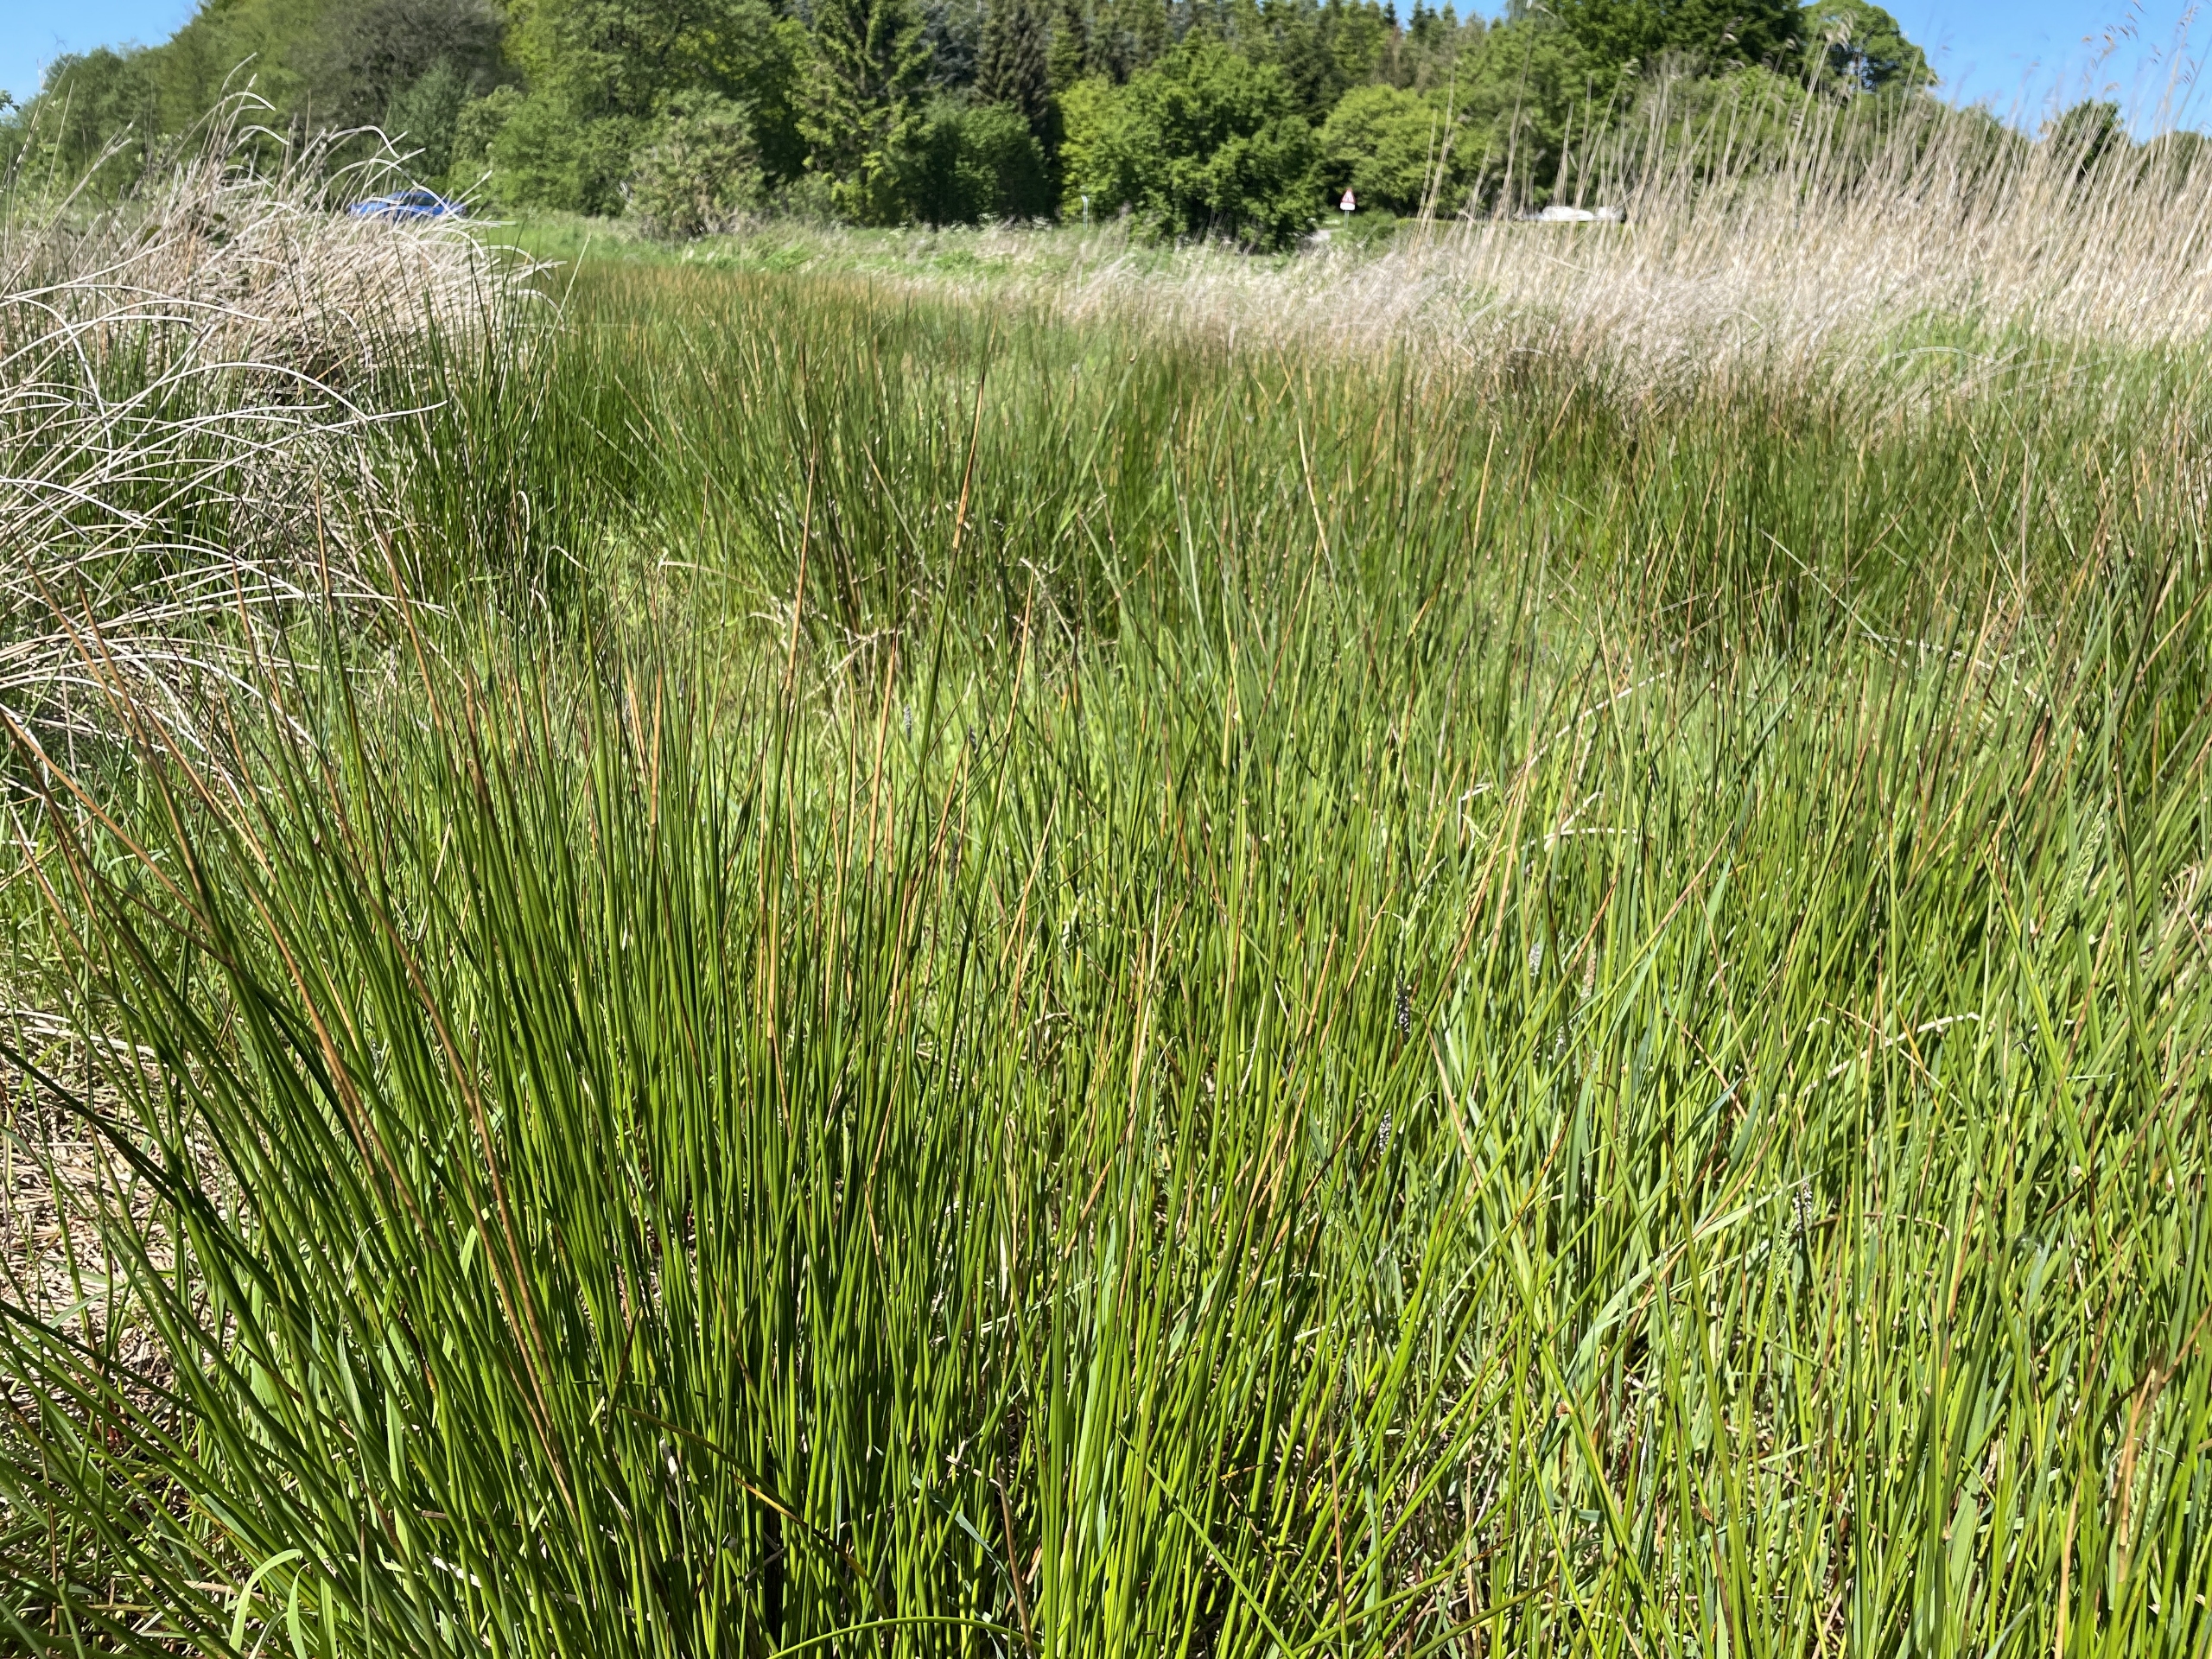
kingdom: Plantae
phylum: Tracheophyta
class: Liliopsida
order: Poales
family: Juncaceae
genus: Juncus
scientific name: Juncus effusus
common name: Lyse-siv
